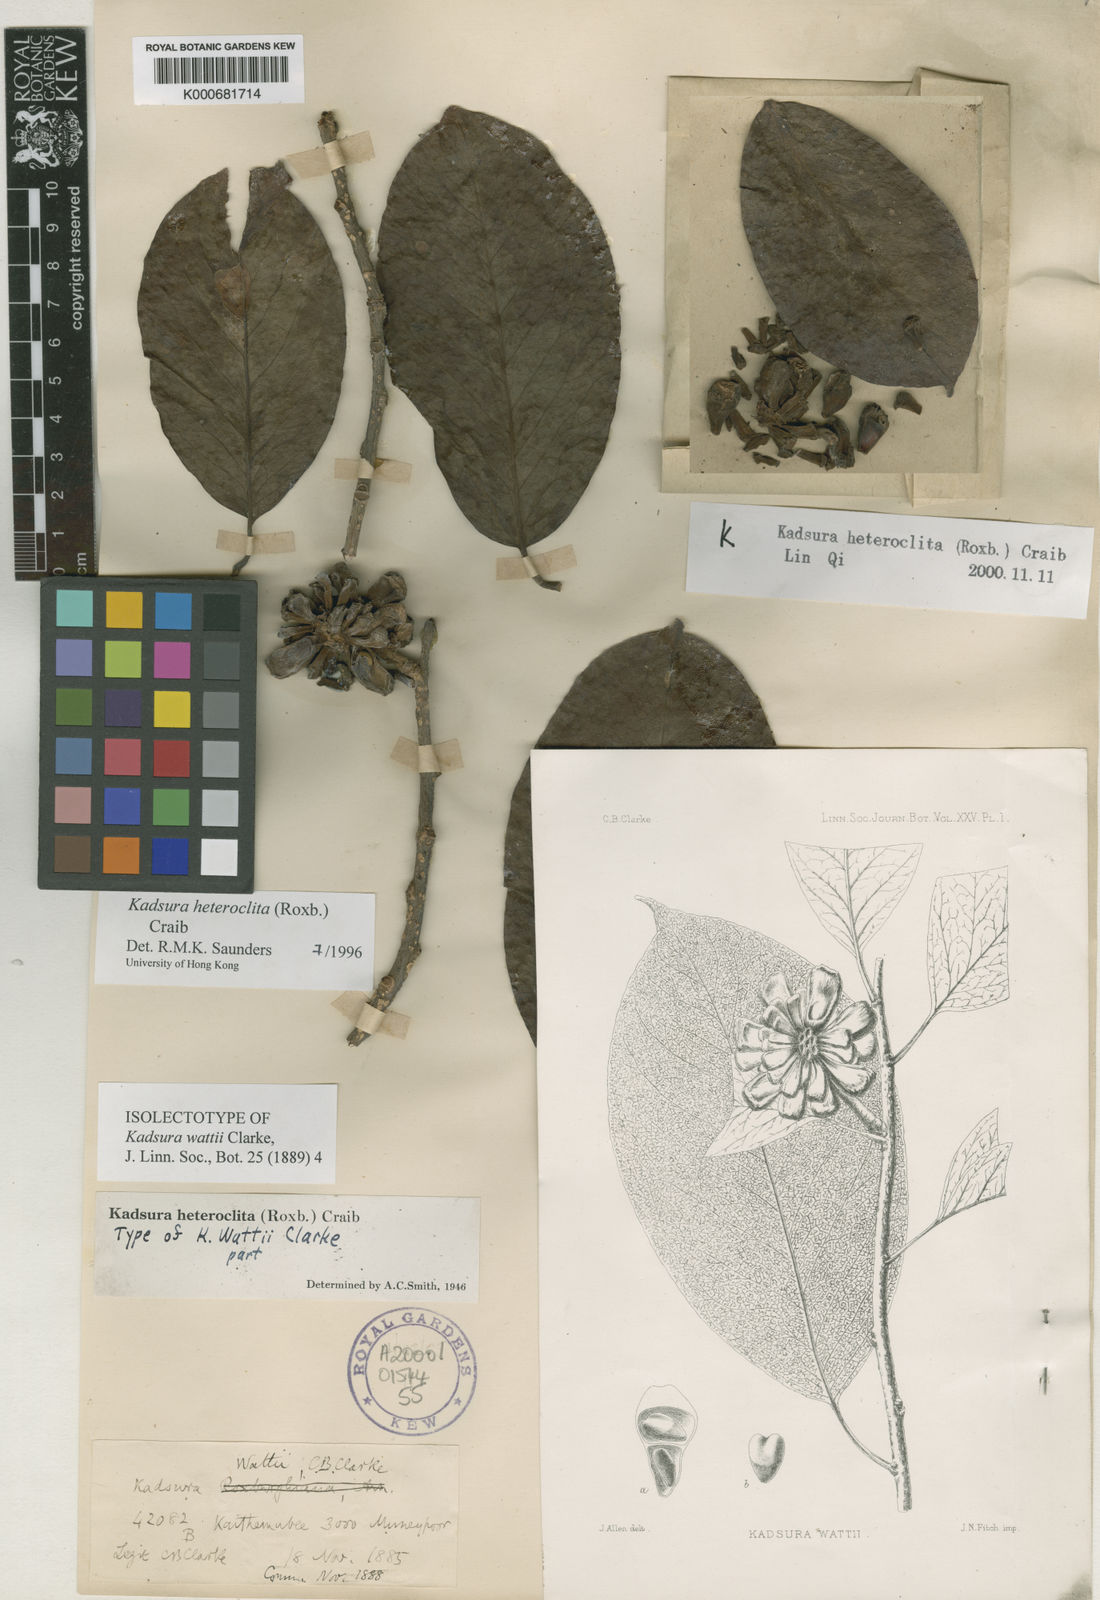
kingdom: Plantae
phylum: Tracheophyta
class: Magnoliopsida
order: Austrobaileyales
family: Schisandraceae
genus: Kadsura
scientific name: Kadsura heteroclita
